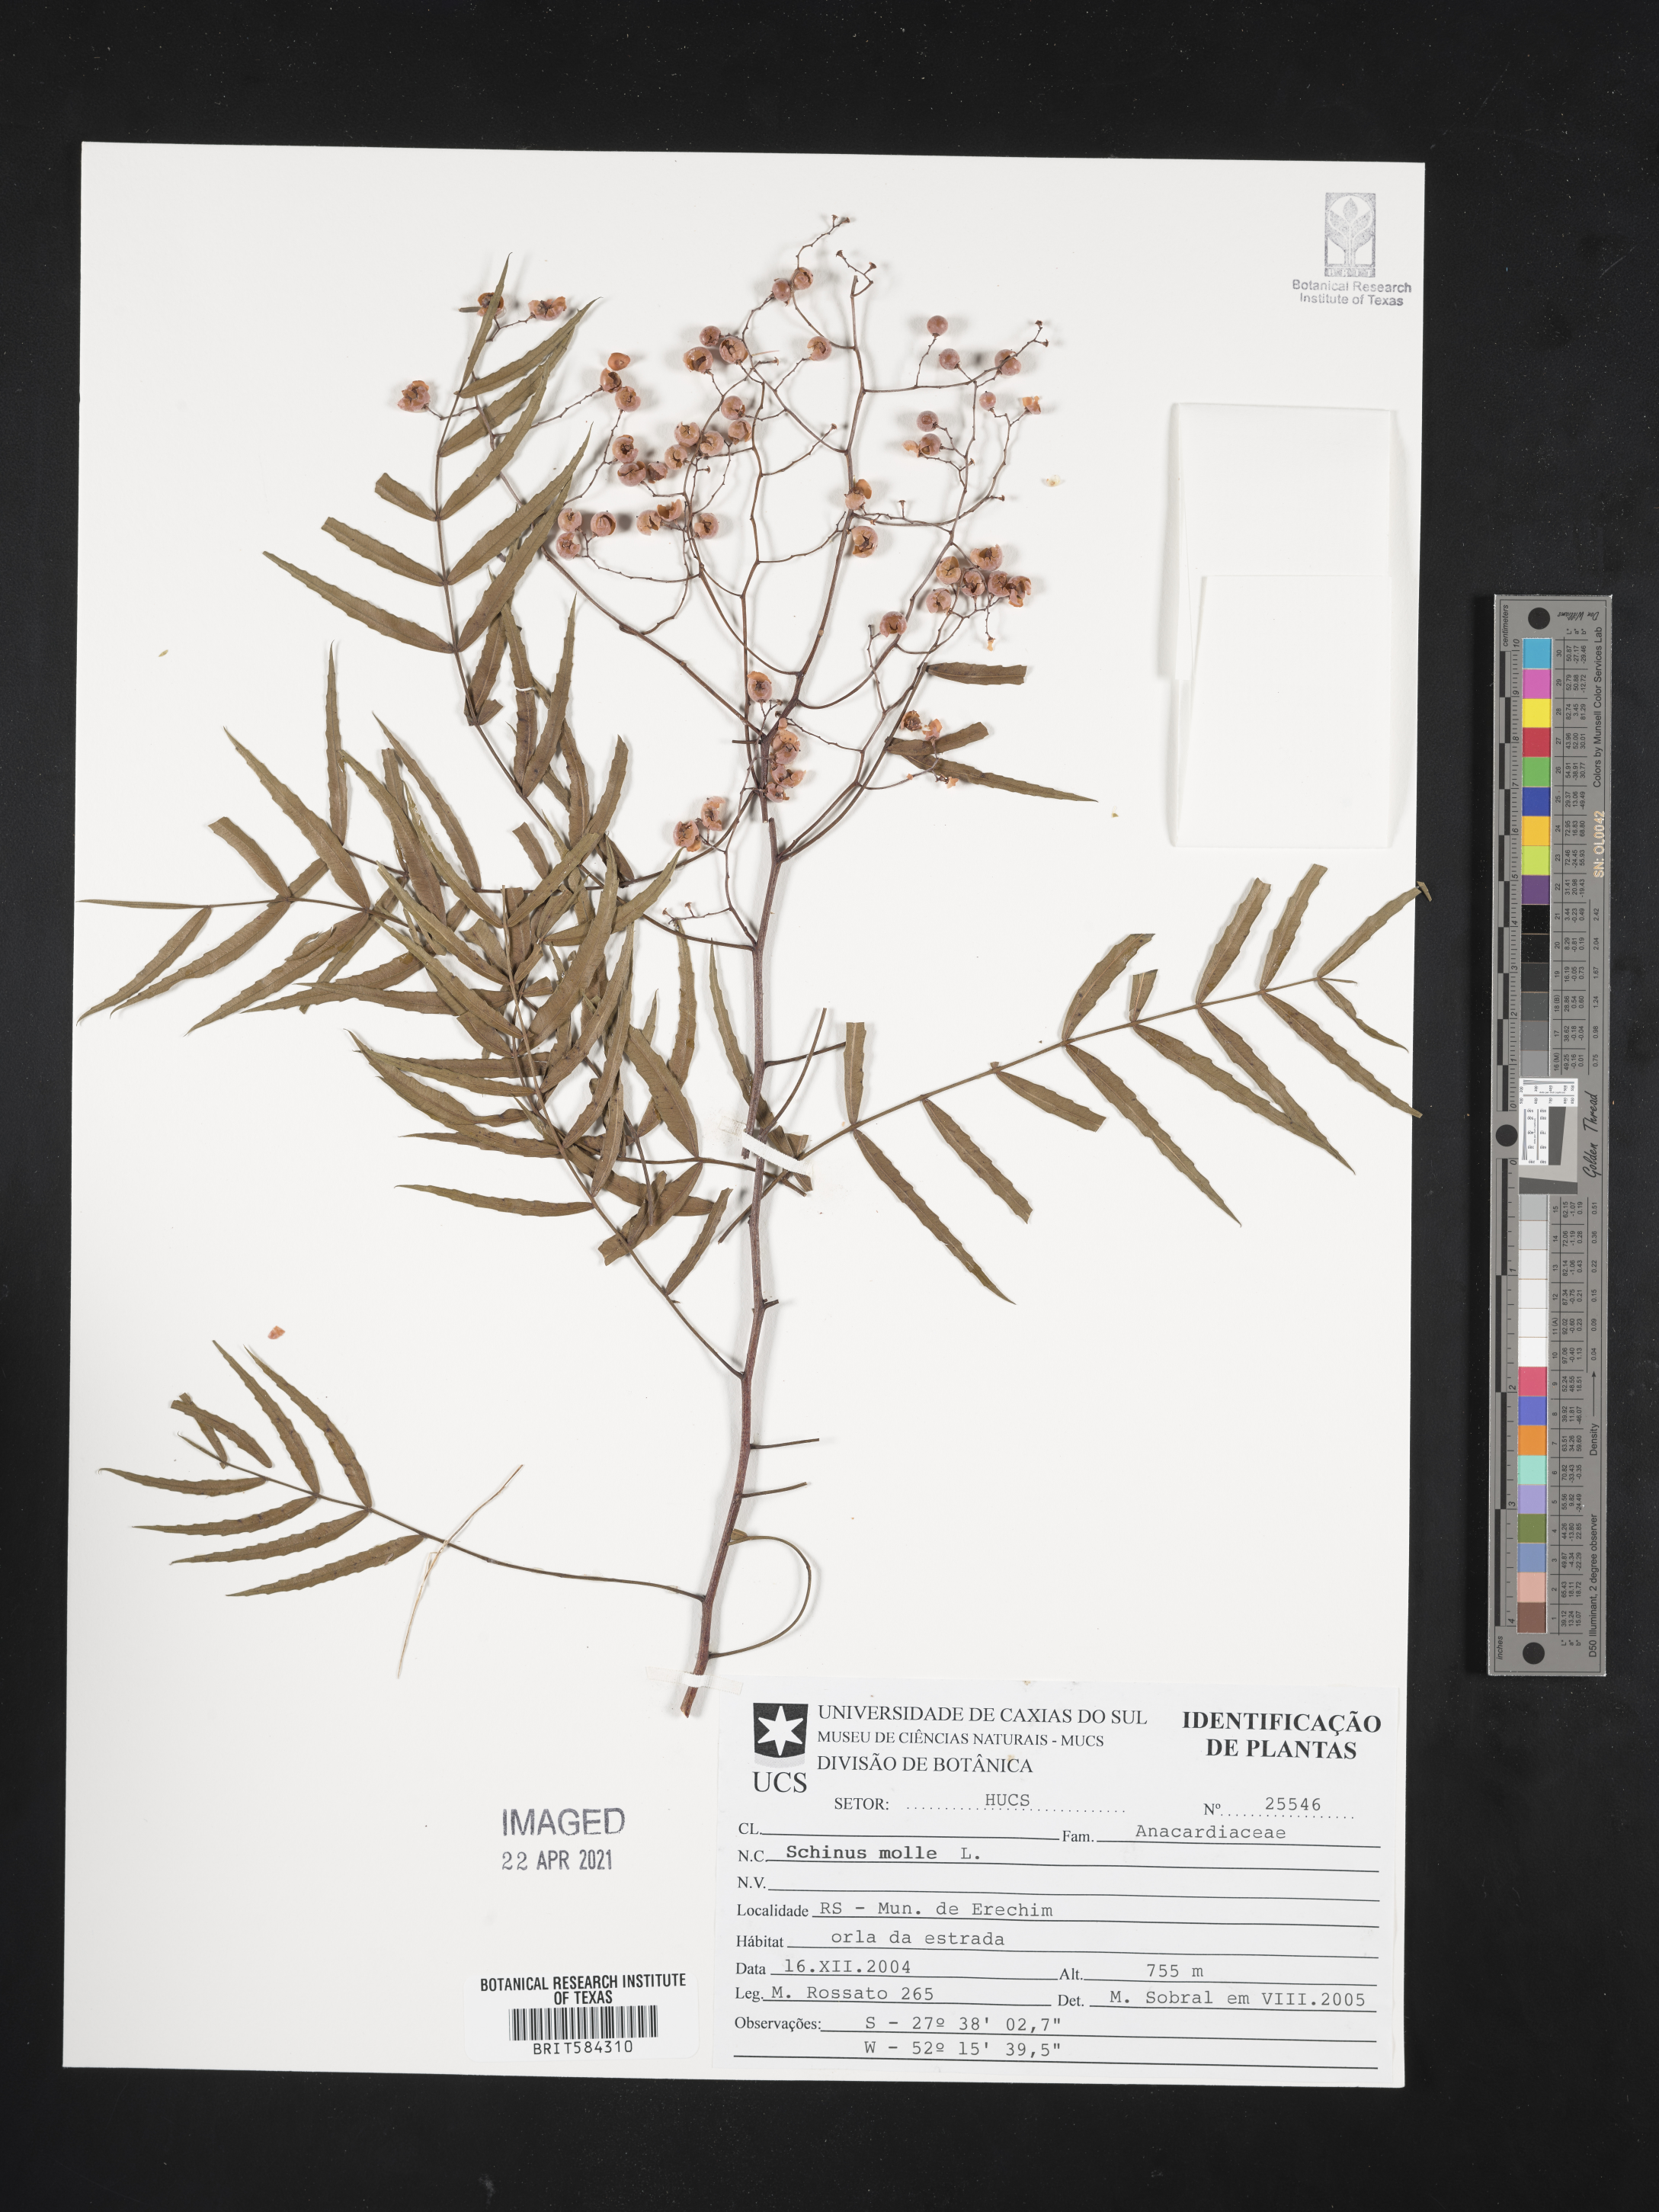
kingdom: Plantae
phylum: Tracheophyta
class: Magnoliopsida
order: Sapindales
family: Anacardiaceae
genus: Schinus
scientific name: Schinus molle
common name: Peruvian peppertree
